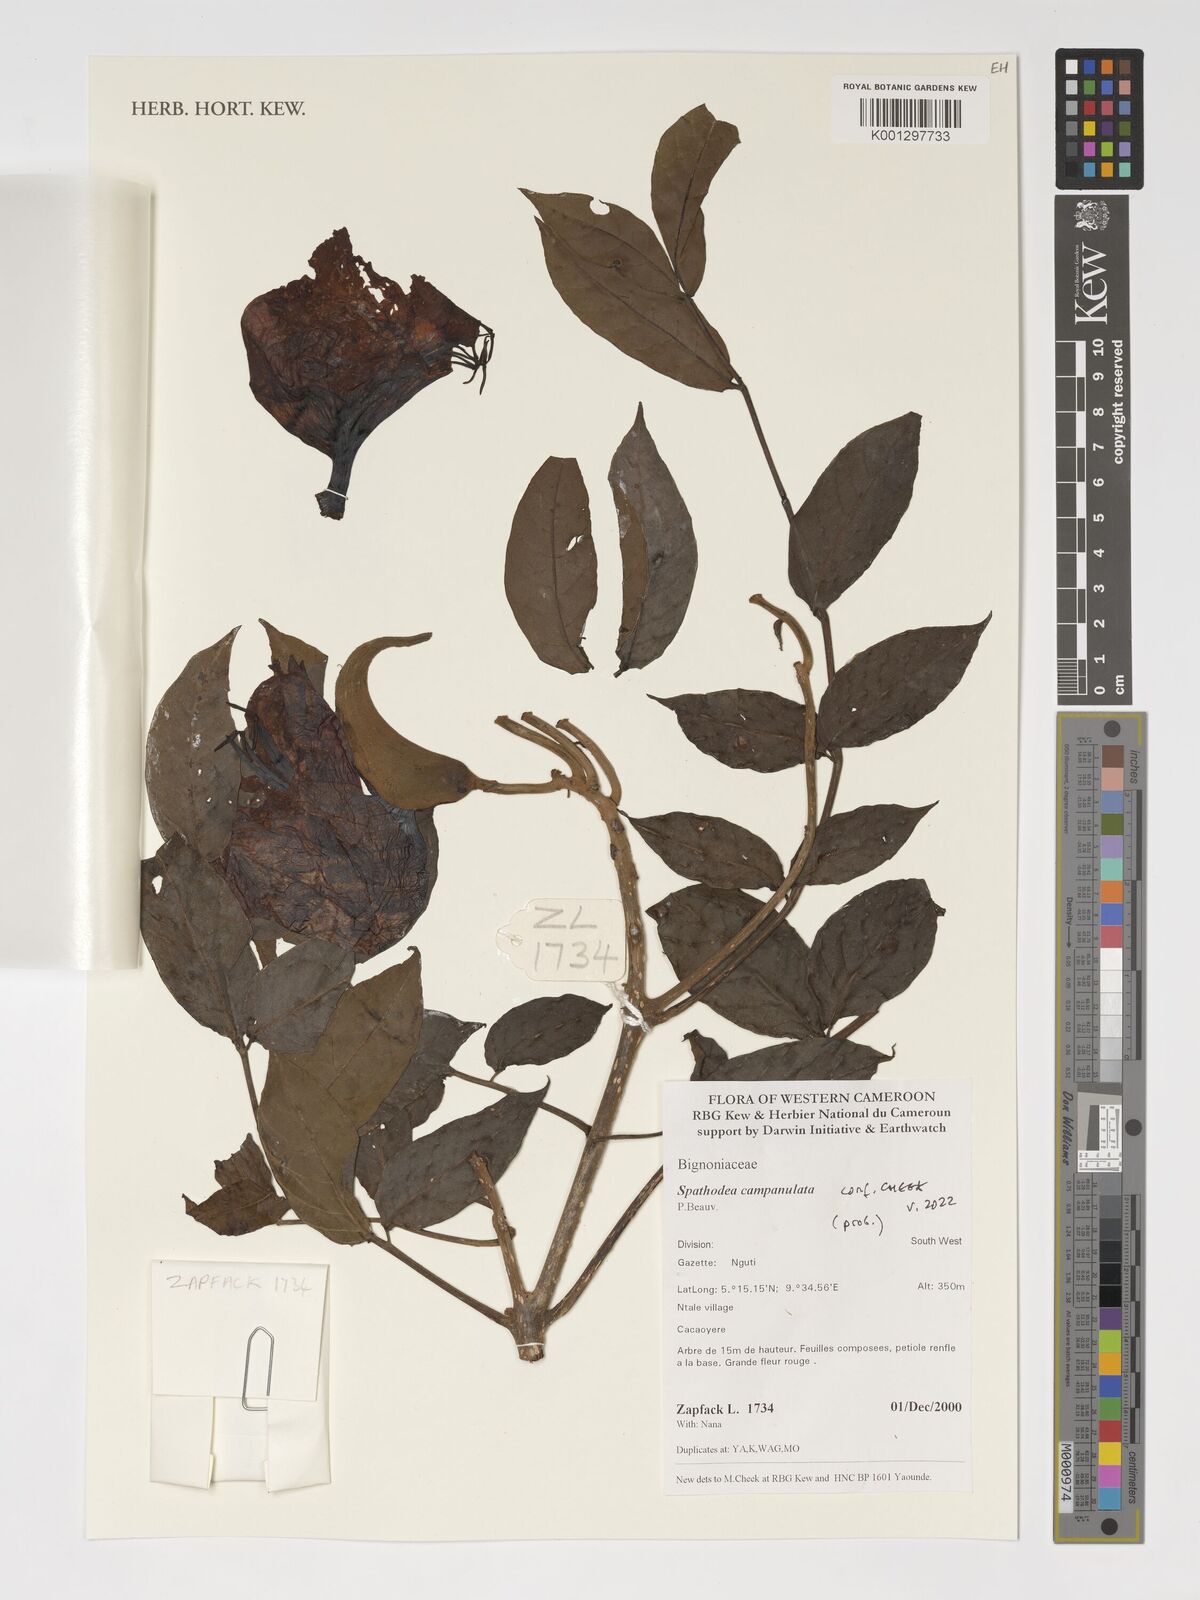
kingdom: Plantae
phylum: Tracheophyta
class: Magnoliopsida
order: Lamiales
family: Bignoniaceae
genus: Spathodea
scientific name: Spathodea campanulata
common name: African tuliptree
